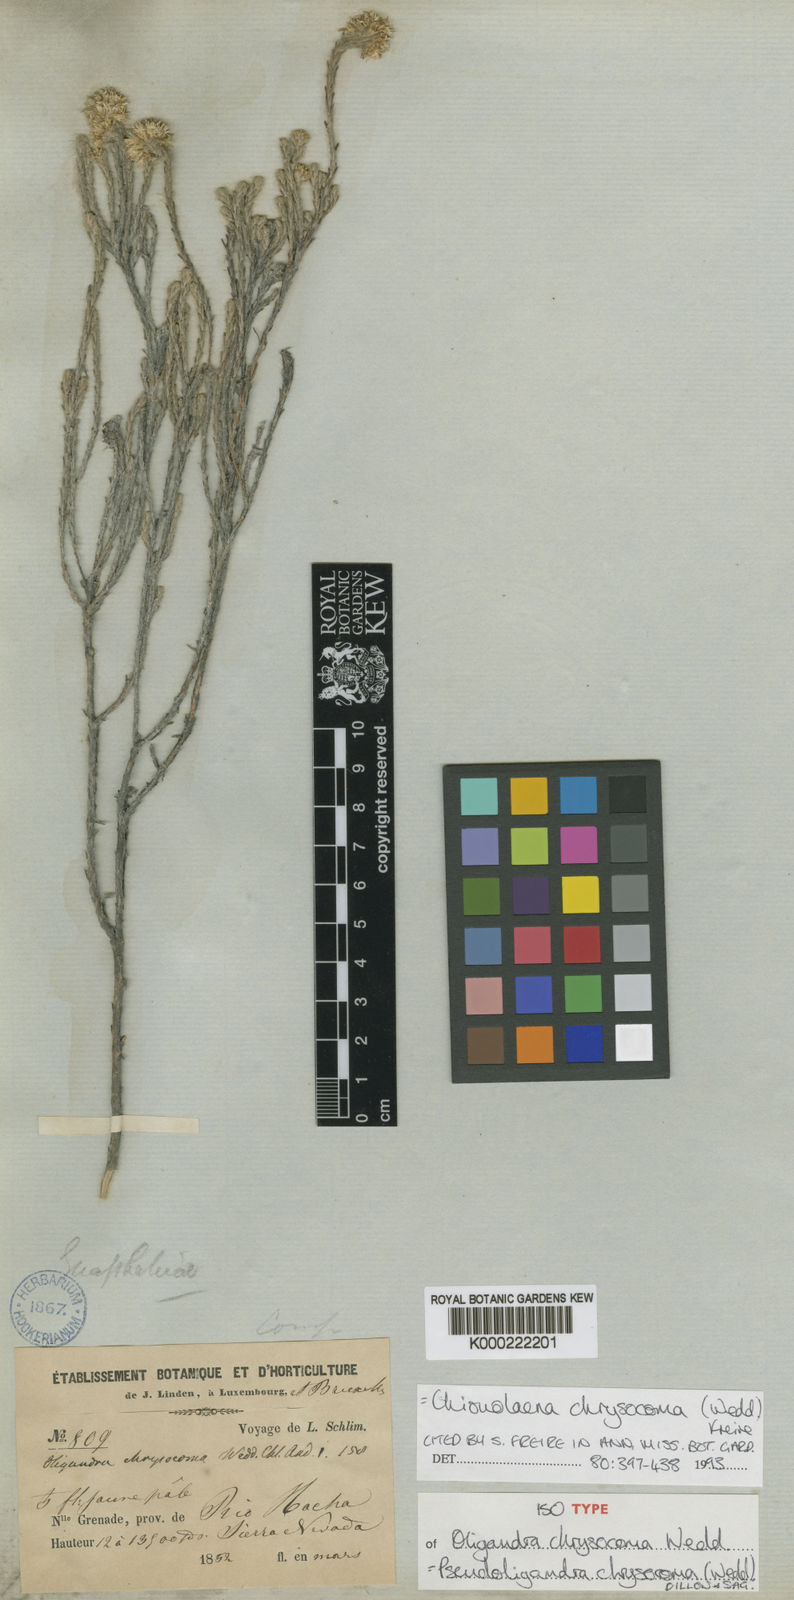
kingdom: Plantae
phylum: Tracheophyta
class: Magnoliopsida
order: Asterales
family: Asteraceae
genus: Chionolaena
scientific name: Chionolaena chrysocoma
